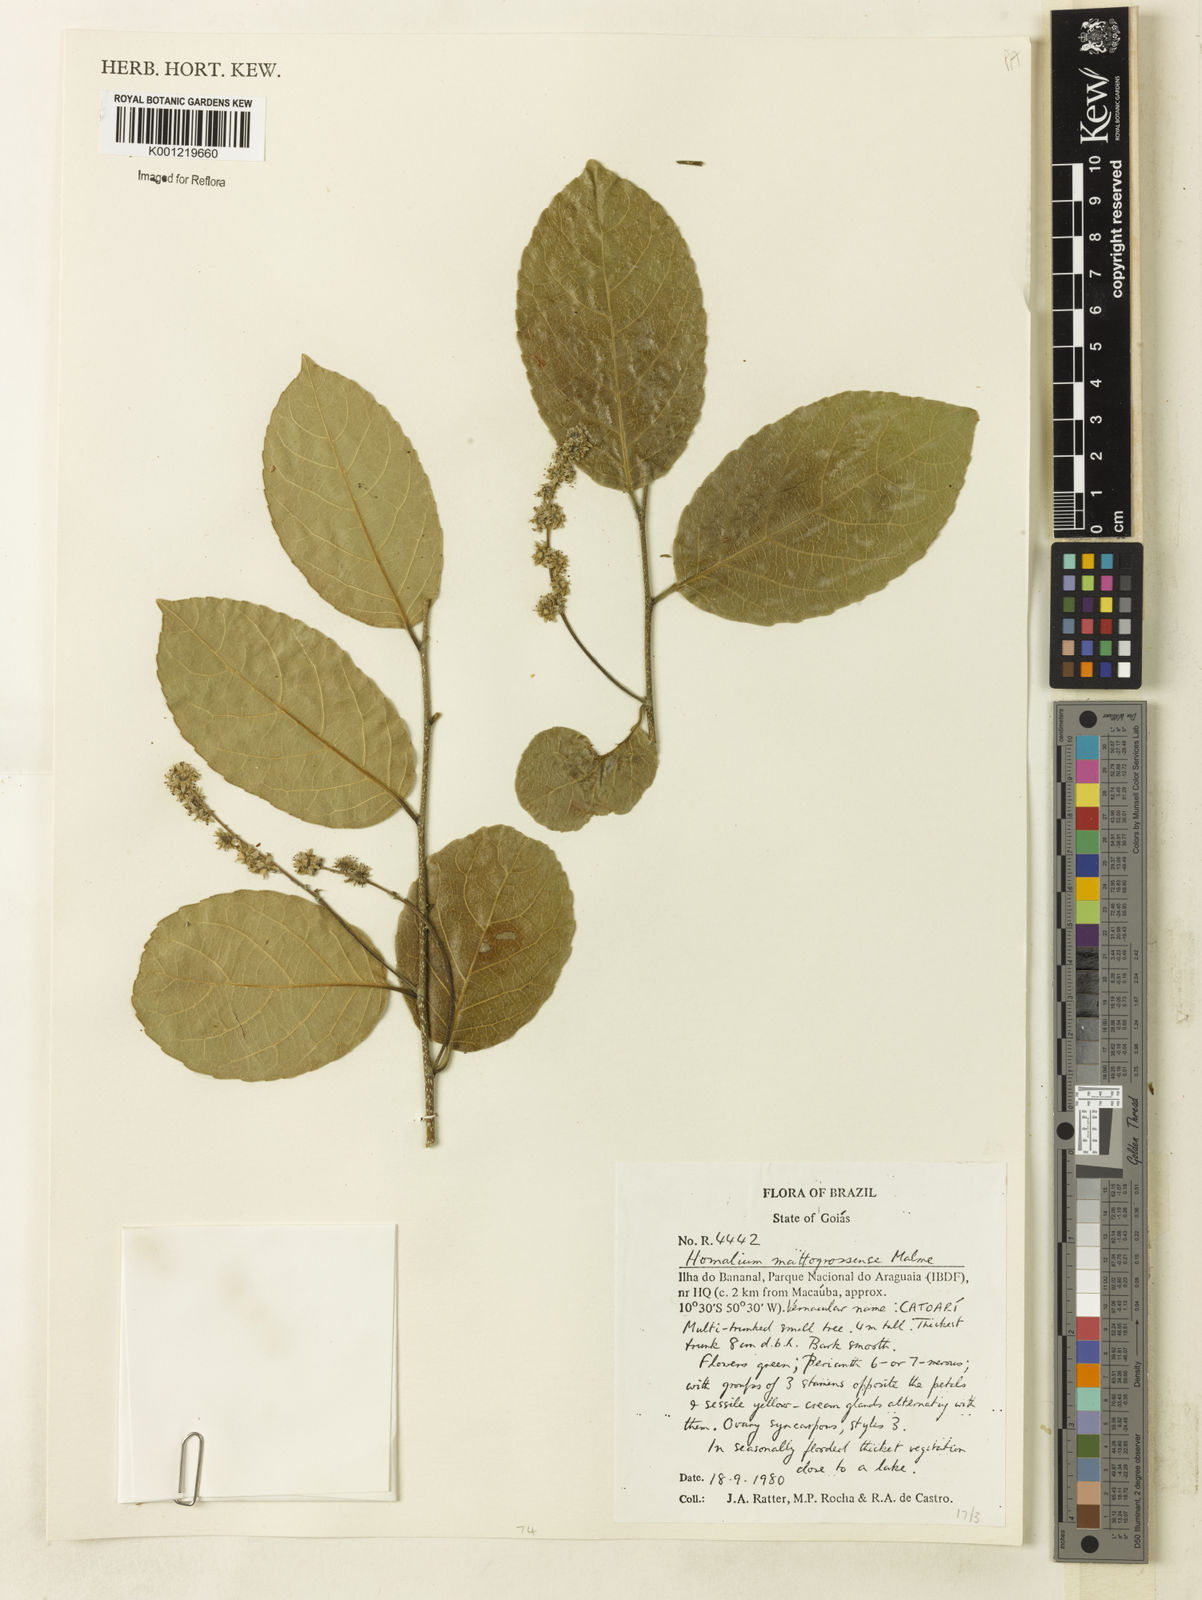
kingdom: Plantae
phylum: Tracheophyta
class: Magnoliopsida
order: Malpighiales
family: Salicaceae
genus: Homalium
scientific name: Homalium guianense
